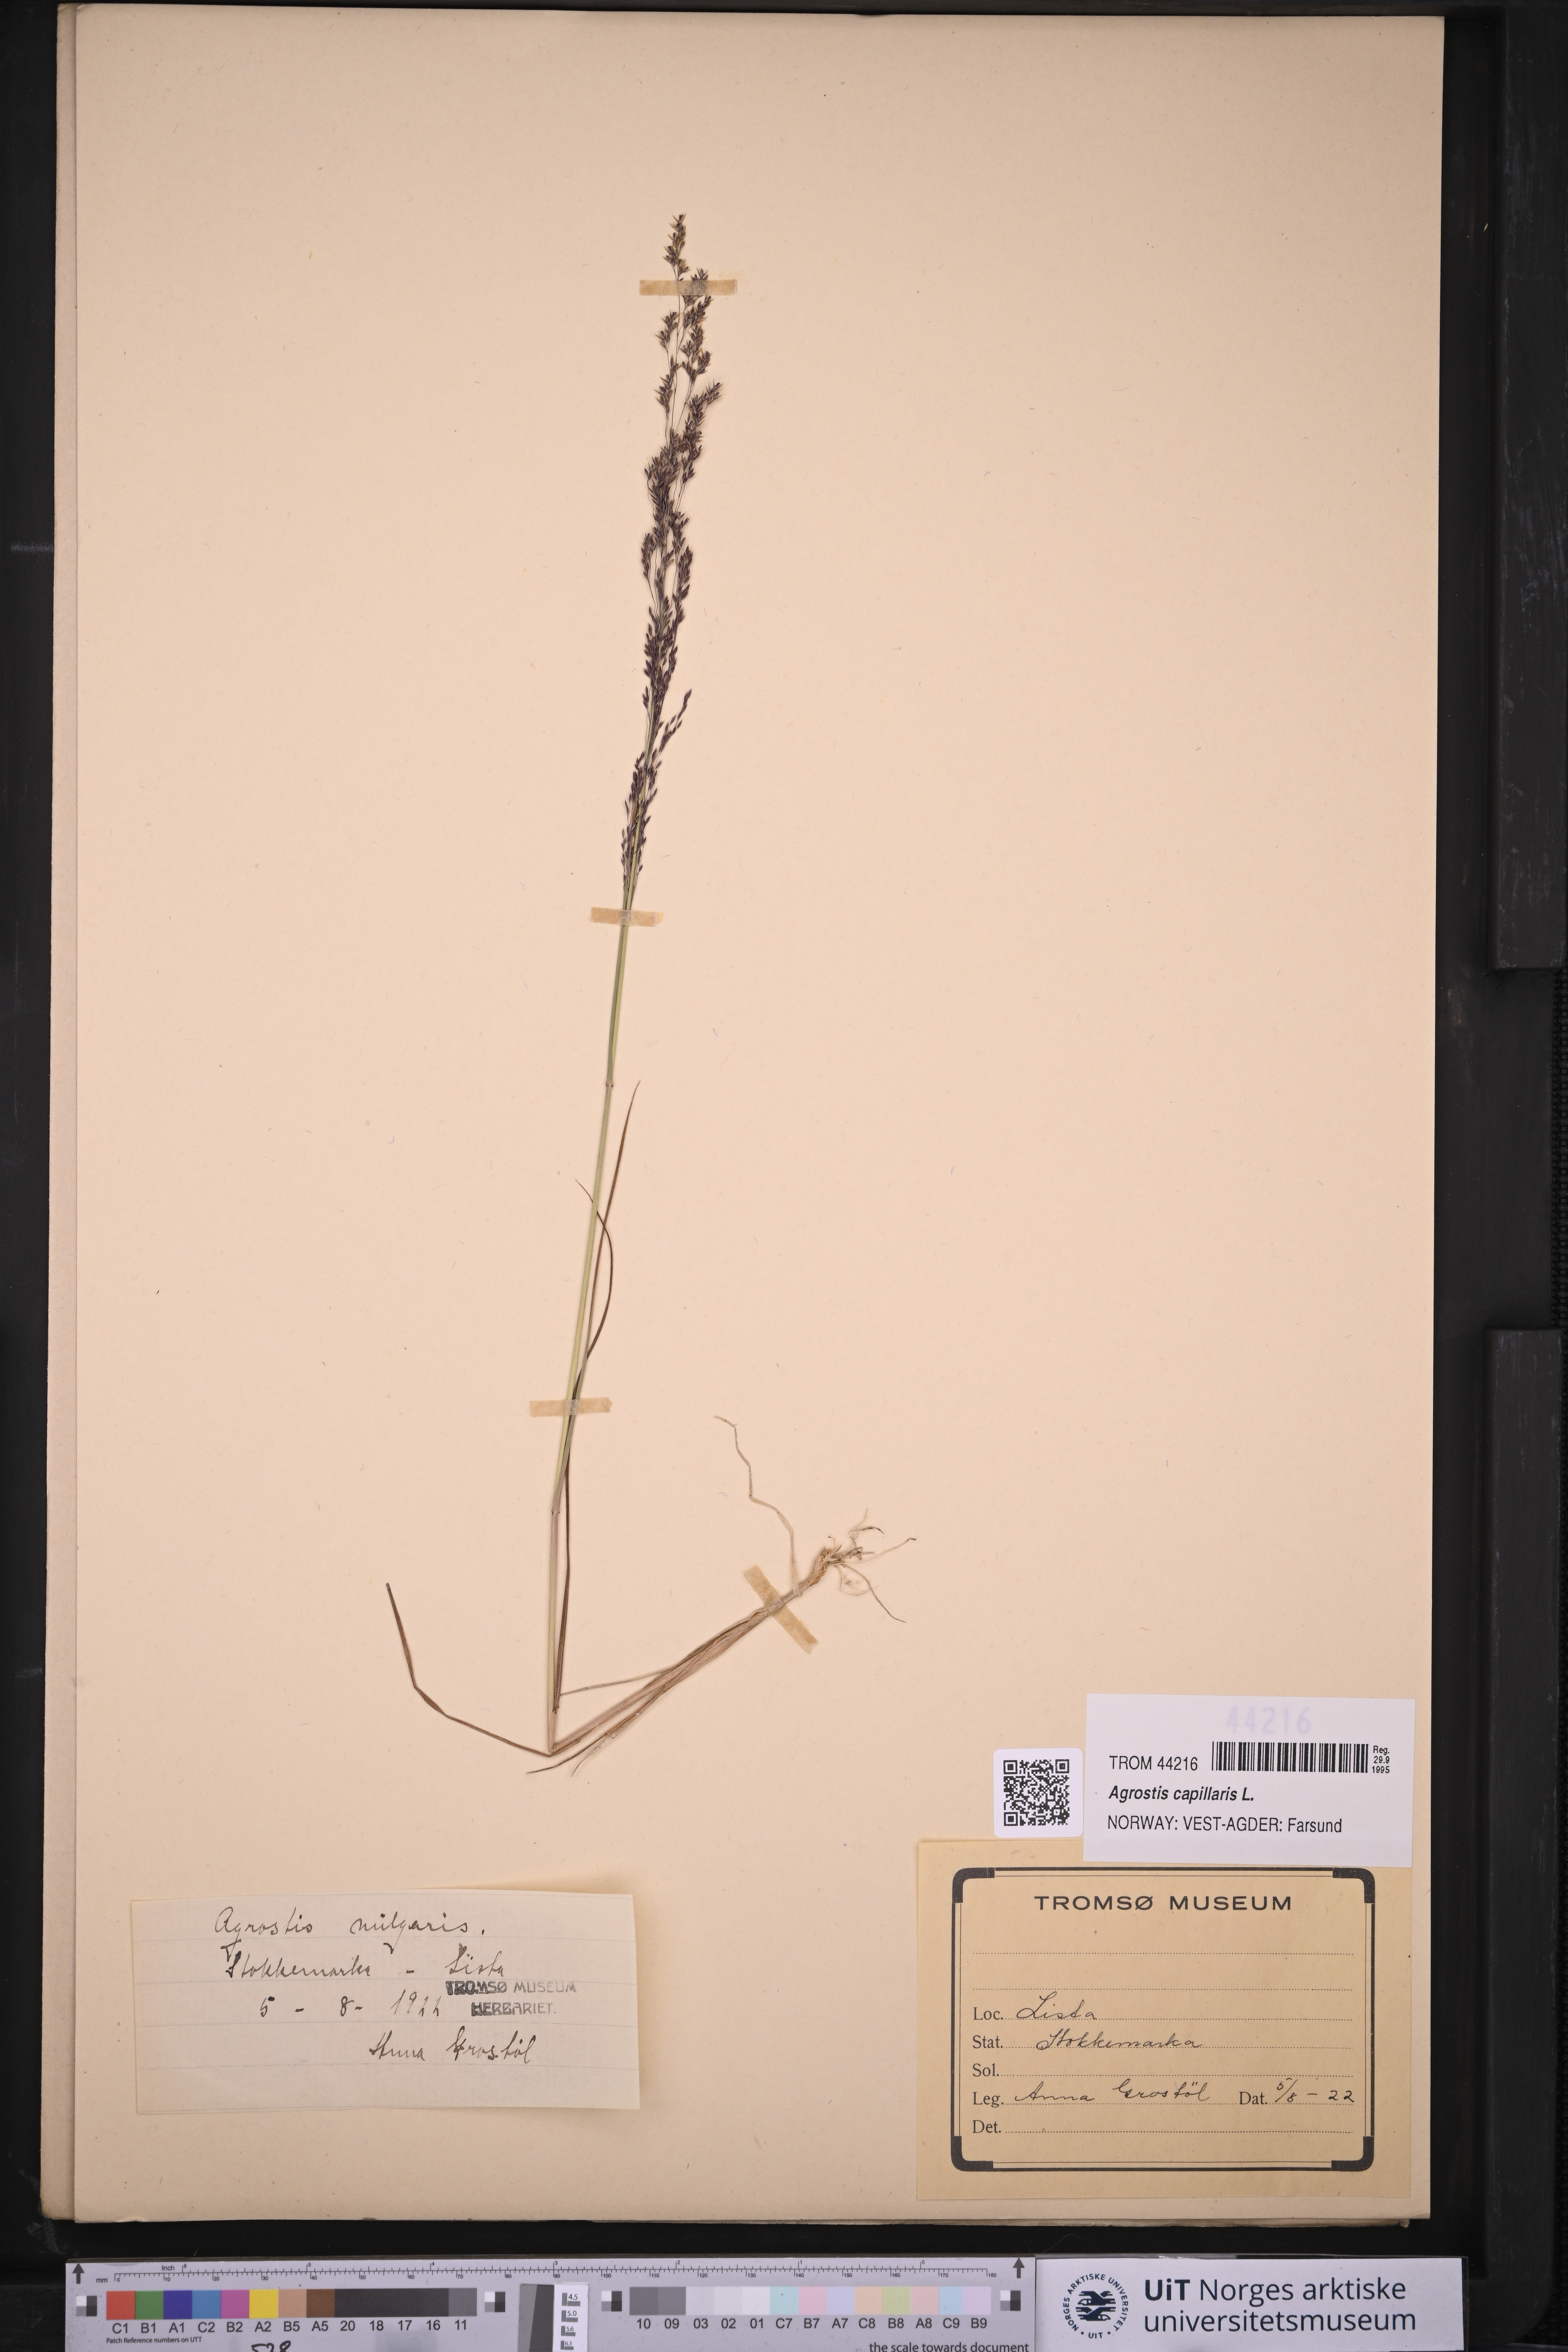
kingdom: Plantae
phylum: Tracheophyta
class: Liliopsida
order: Poales
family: Poaceae
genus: Agrostis
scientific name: Agrostis capillaris
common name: Colonial bentgrass
